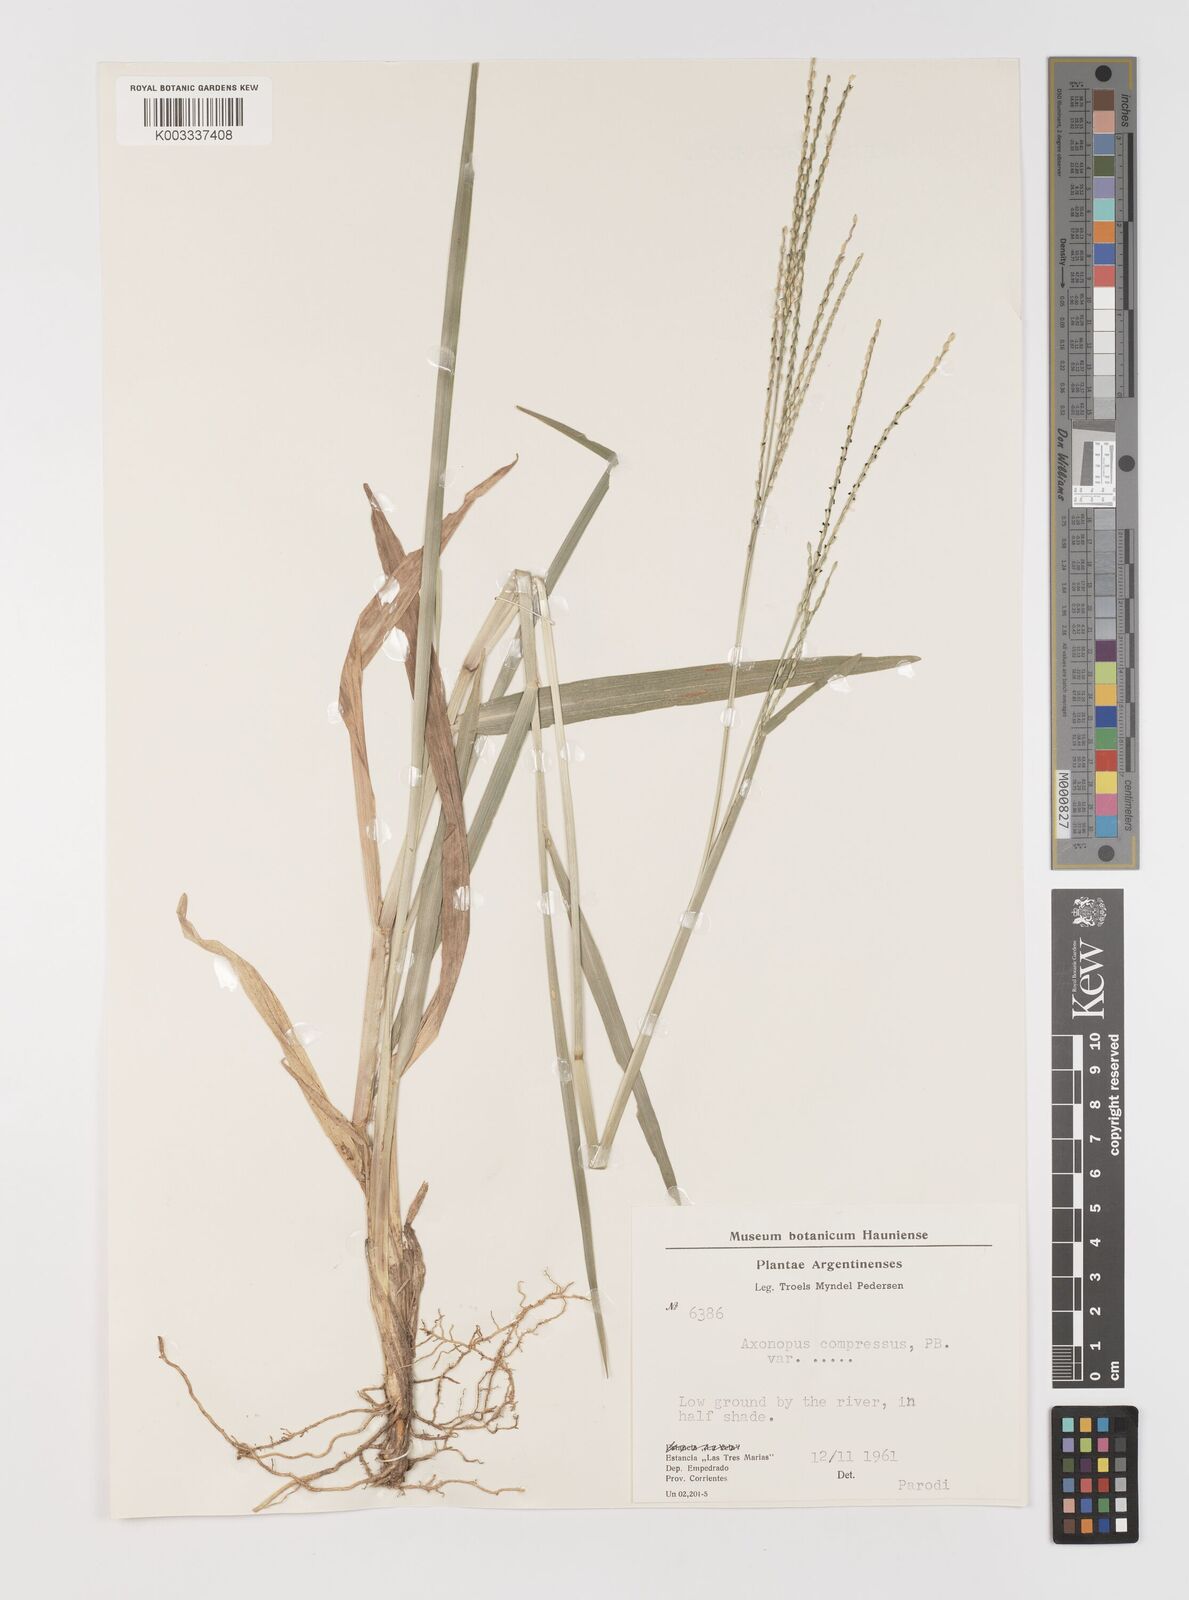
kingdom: Plantae
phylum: Tracheophyta
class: Liliopsida
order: Poales
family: Poaceae
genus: Axonopus
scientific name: Axonopus compressus
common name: American carpet grass
